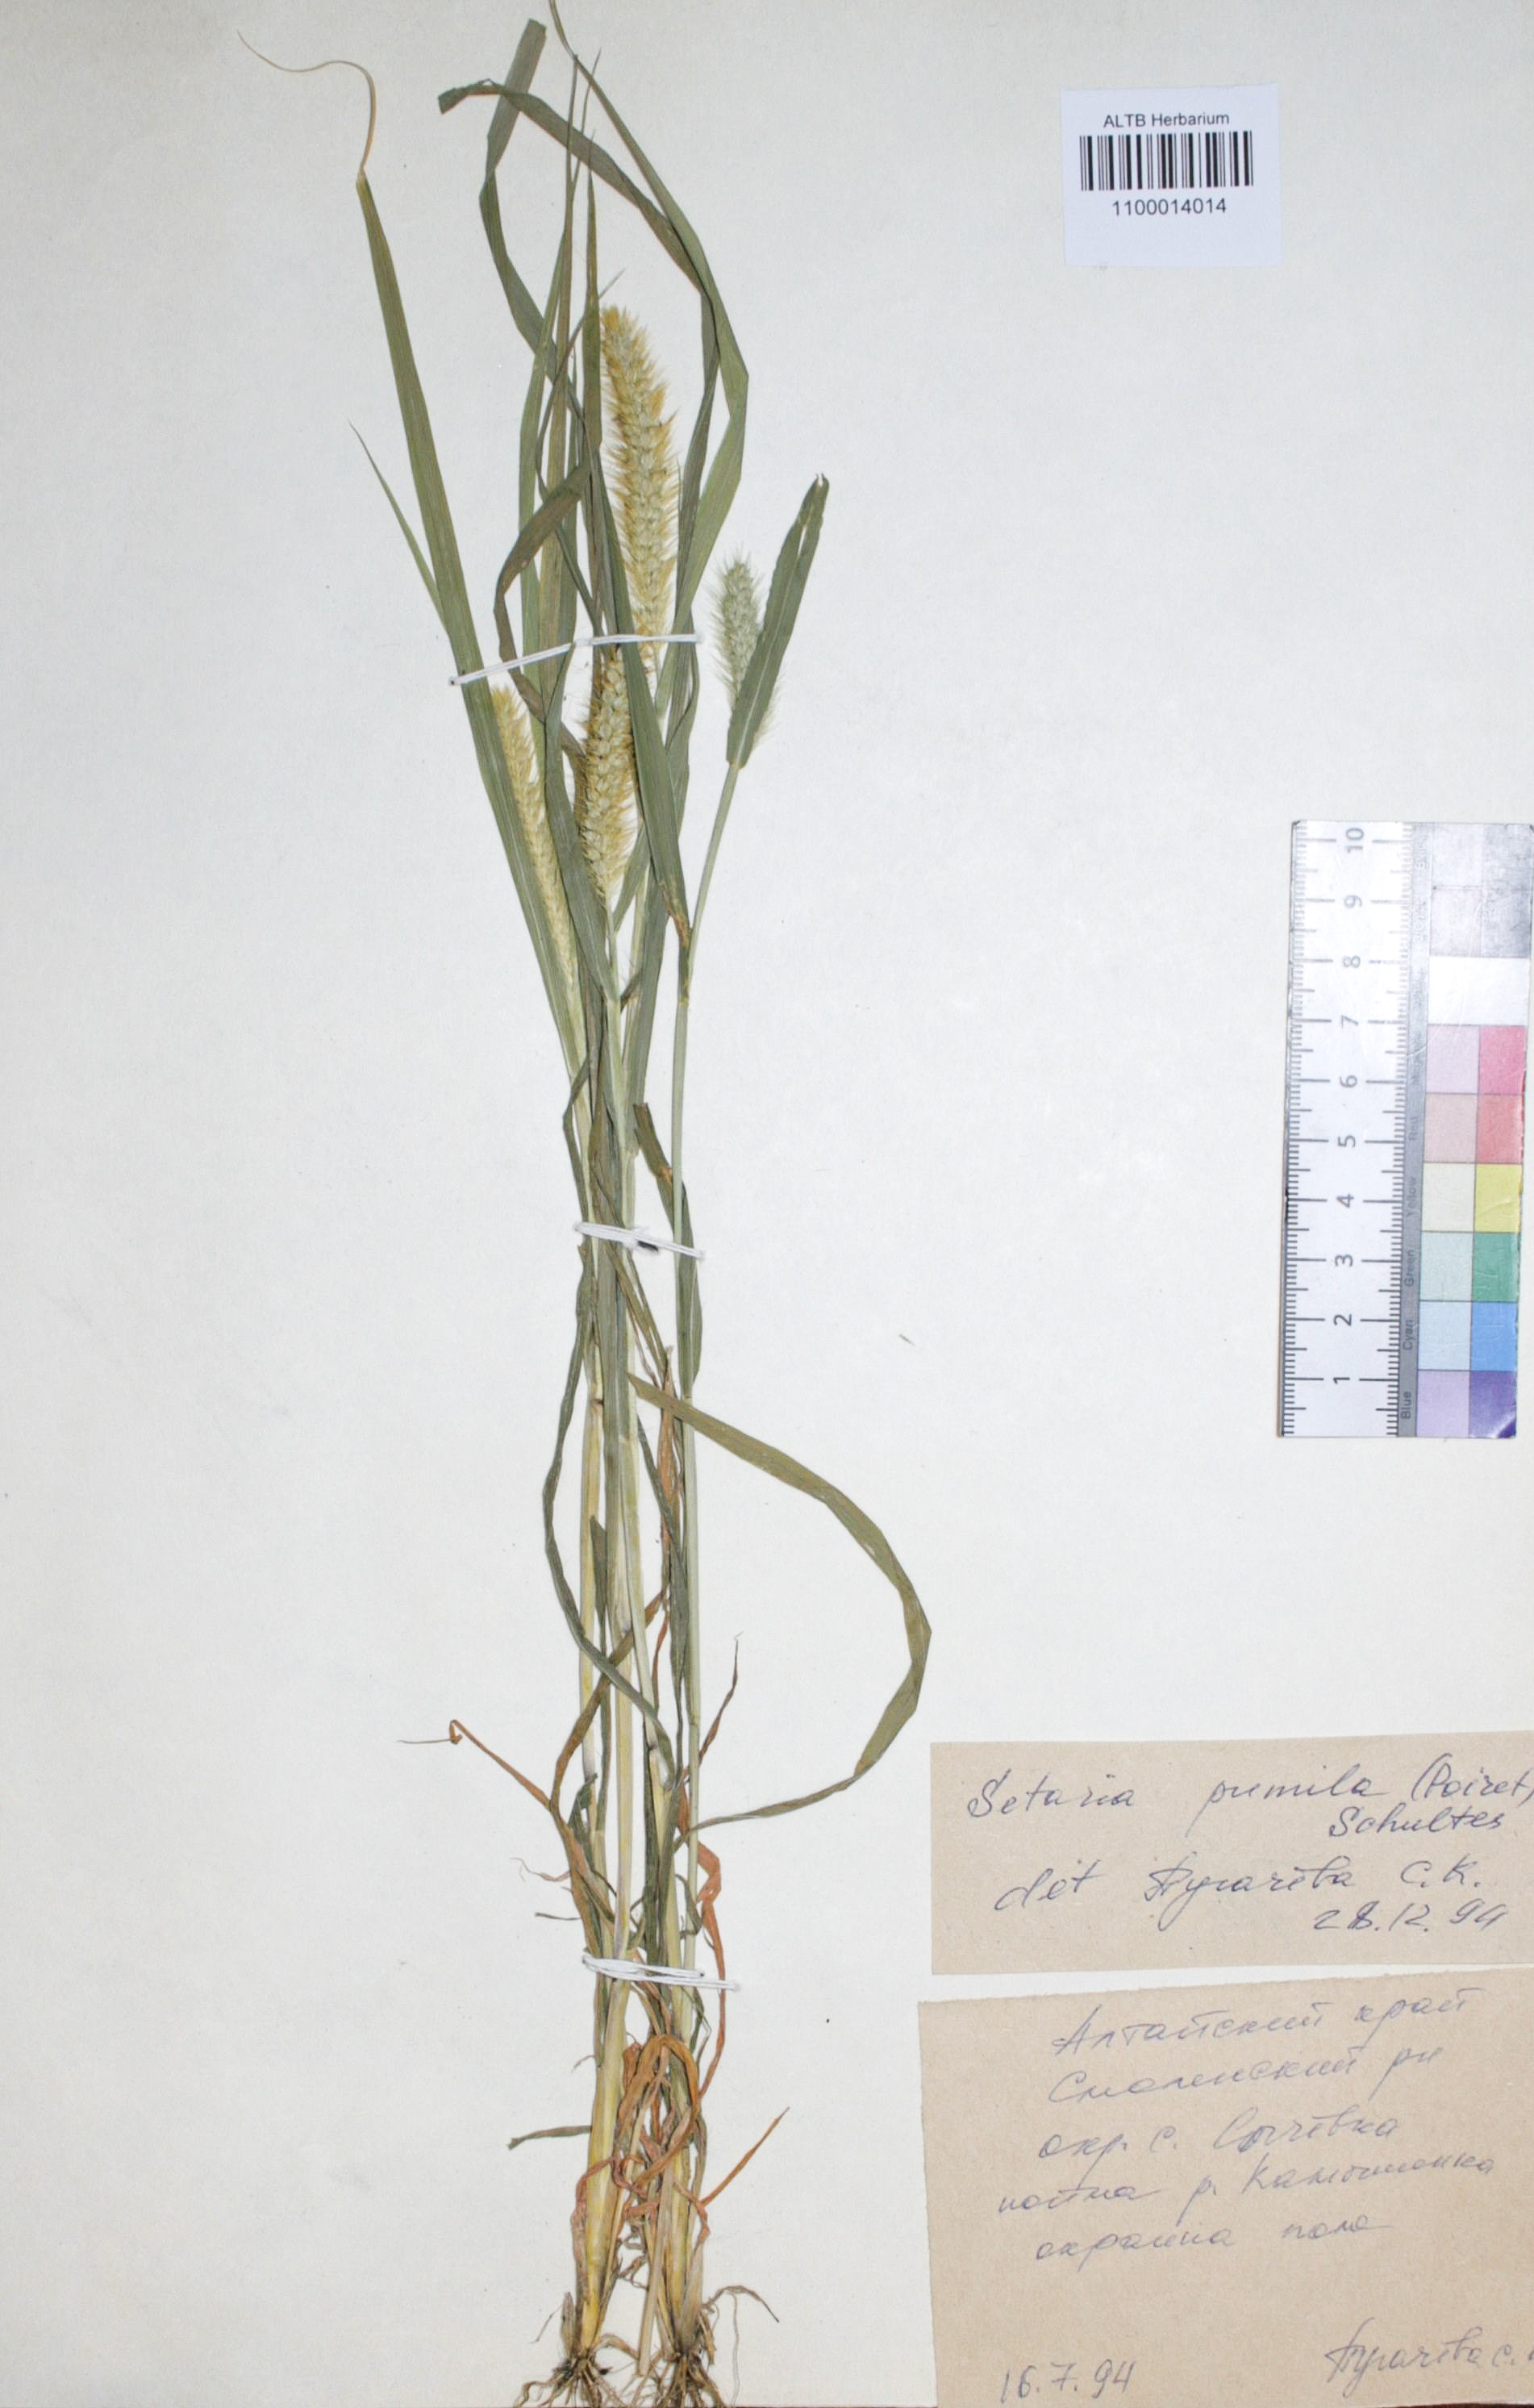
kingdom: Plantae
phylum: Tracheophyta
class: Liliopsida
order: Poales
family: Poaceae
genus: Setaria
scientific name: Setaria pumila
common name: Yellow bristle-grass
